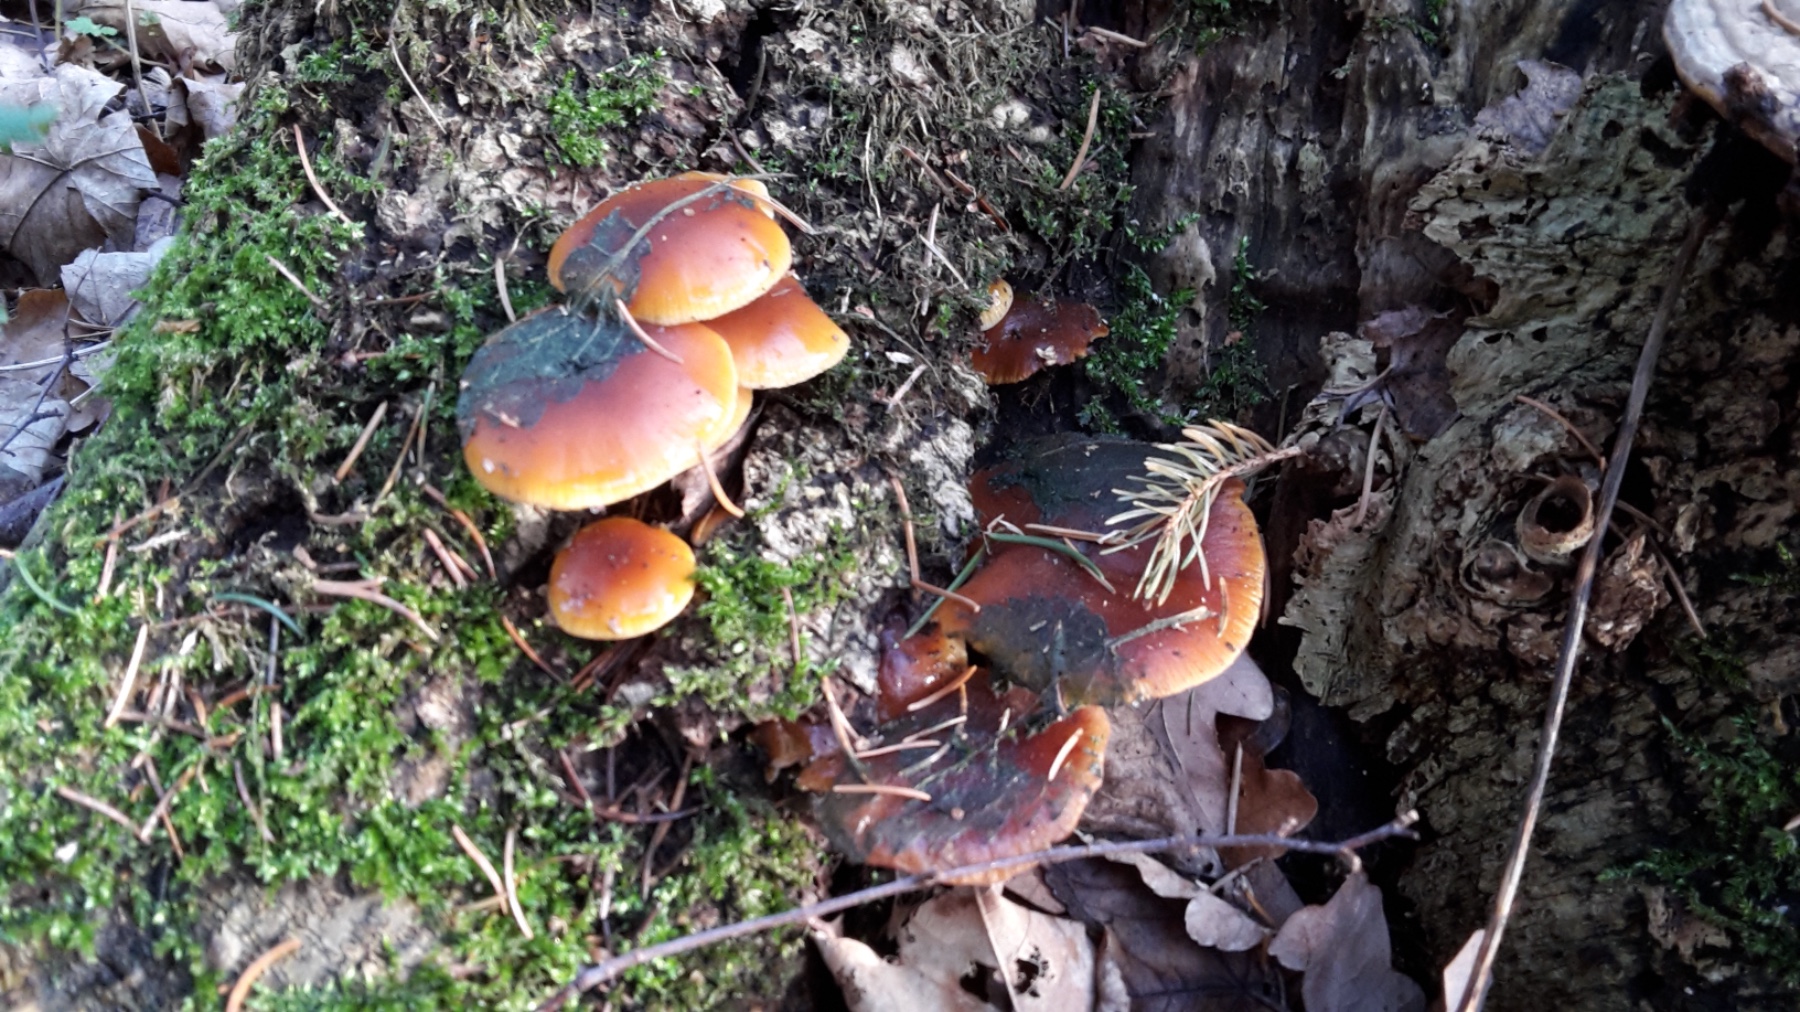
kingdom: Fungi
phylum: Basidiomycota
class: Agaricomycetes
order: Agaricales
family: Physalacriaceae
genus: Flammulina
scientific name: Flammulina velutipes
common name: gul fløjlsfod
